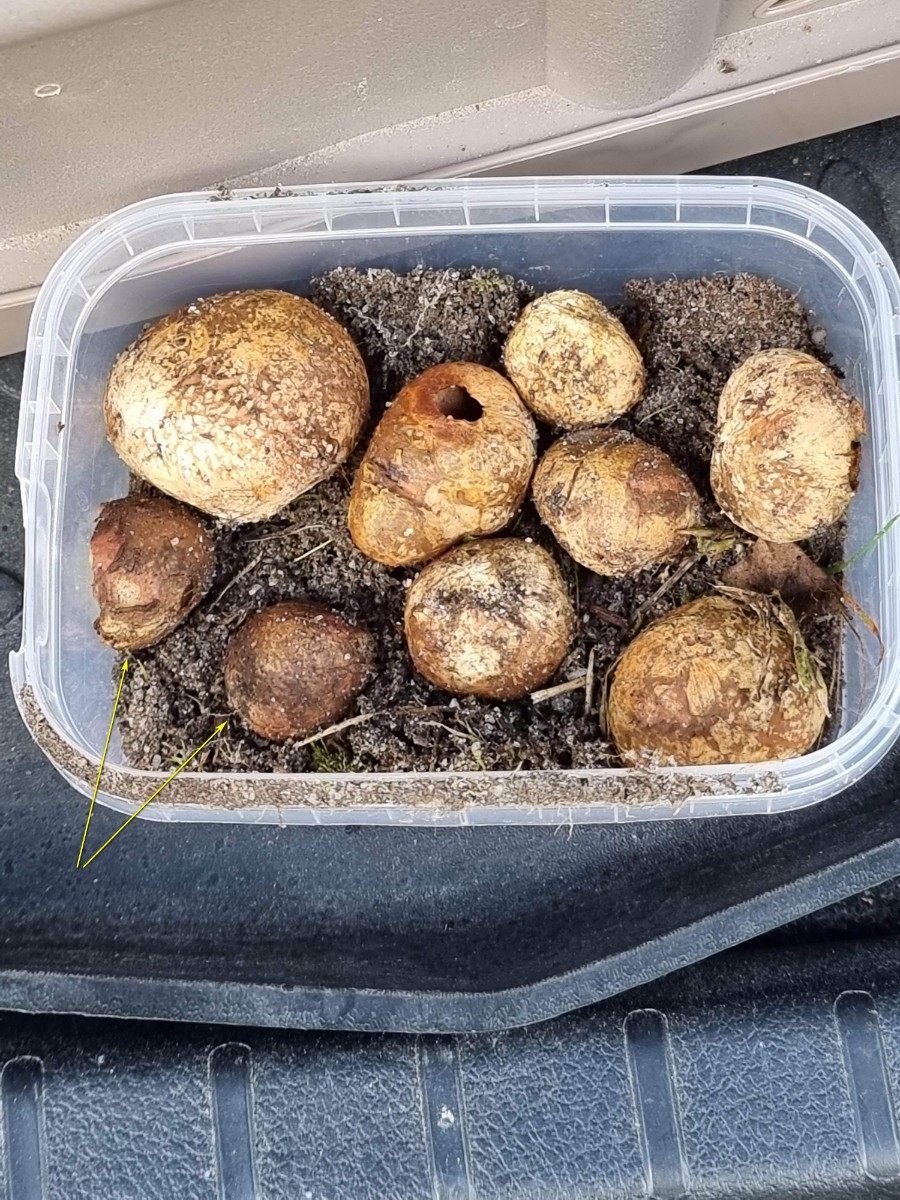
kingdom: Fungi
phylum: Basidiomycota
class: Agaricomycetes
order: Boletales
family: Rhizopogonaceae
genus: Rhizopogon
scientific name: Rhizopogon pseudoroseolus
